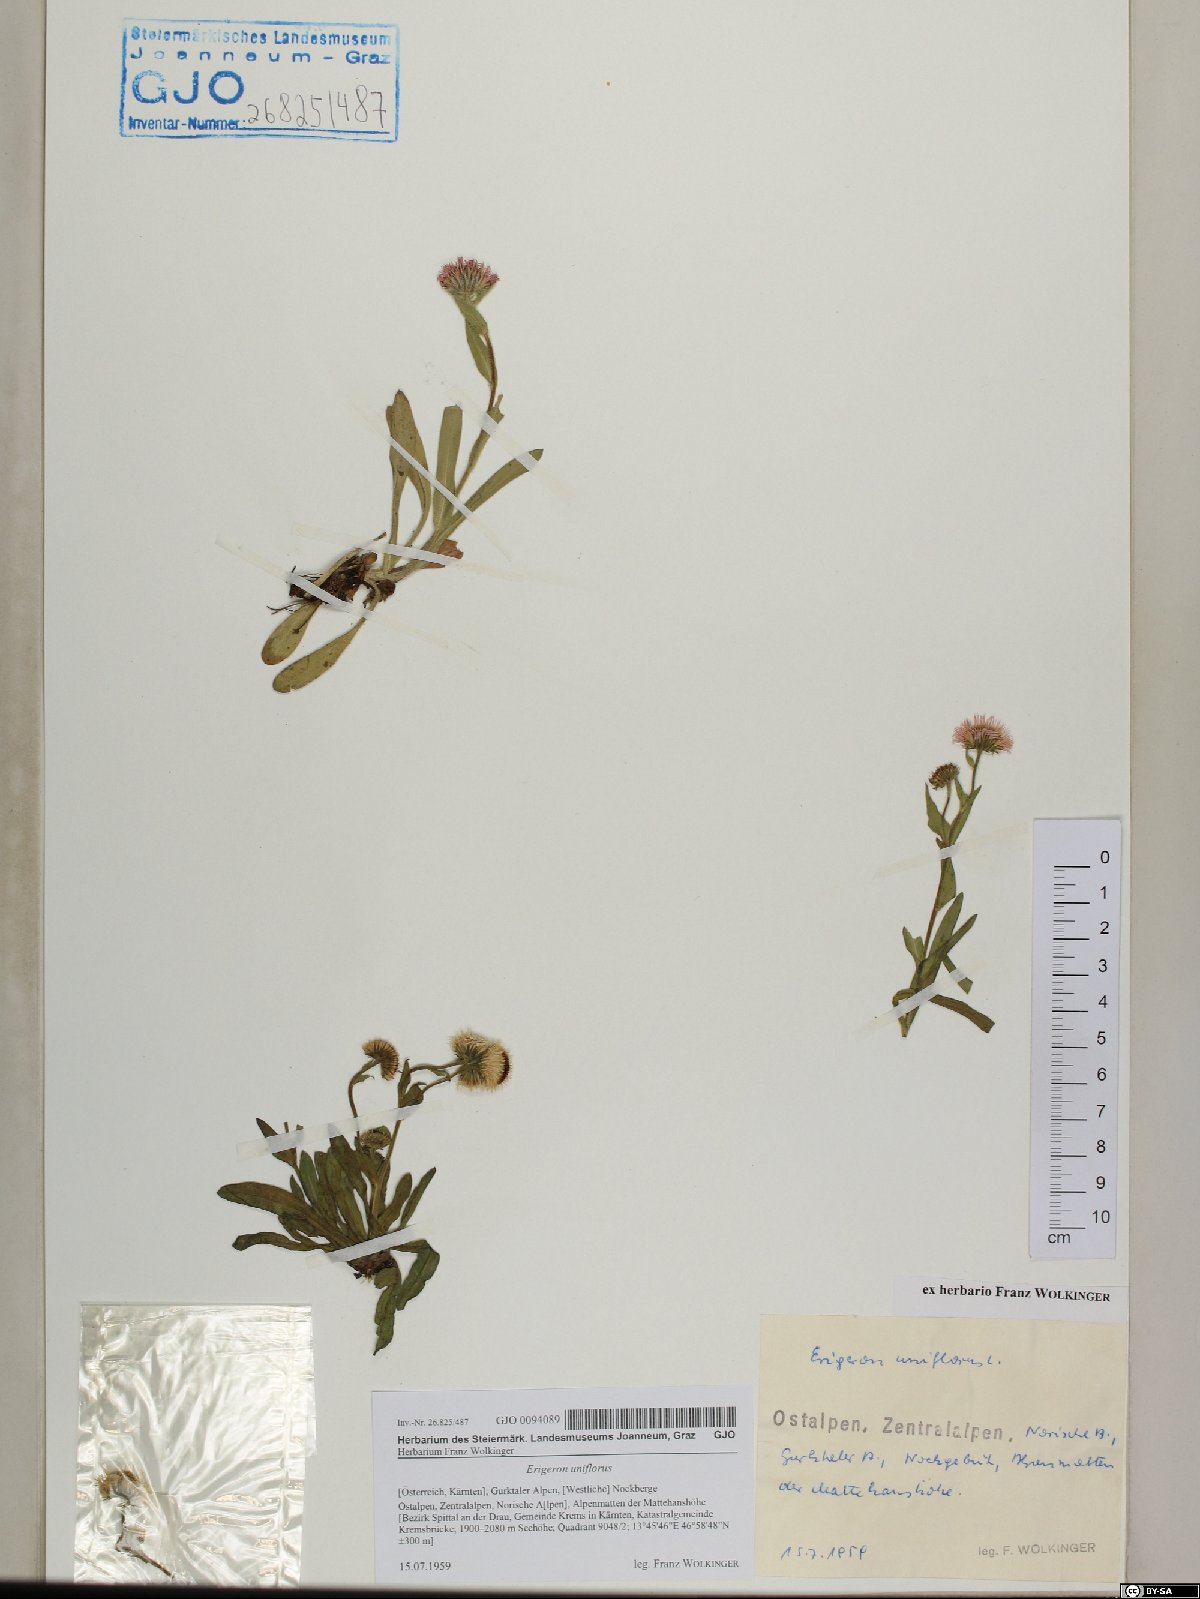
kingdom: Plantae
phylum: Tracheophyta
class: Magnoliopsida
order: Asterales
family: Asteraceae
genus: Erigeron
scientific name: Erigeron uniflorus
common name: Northern daisy
